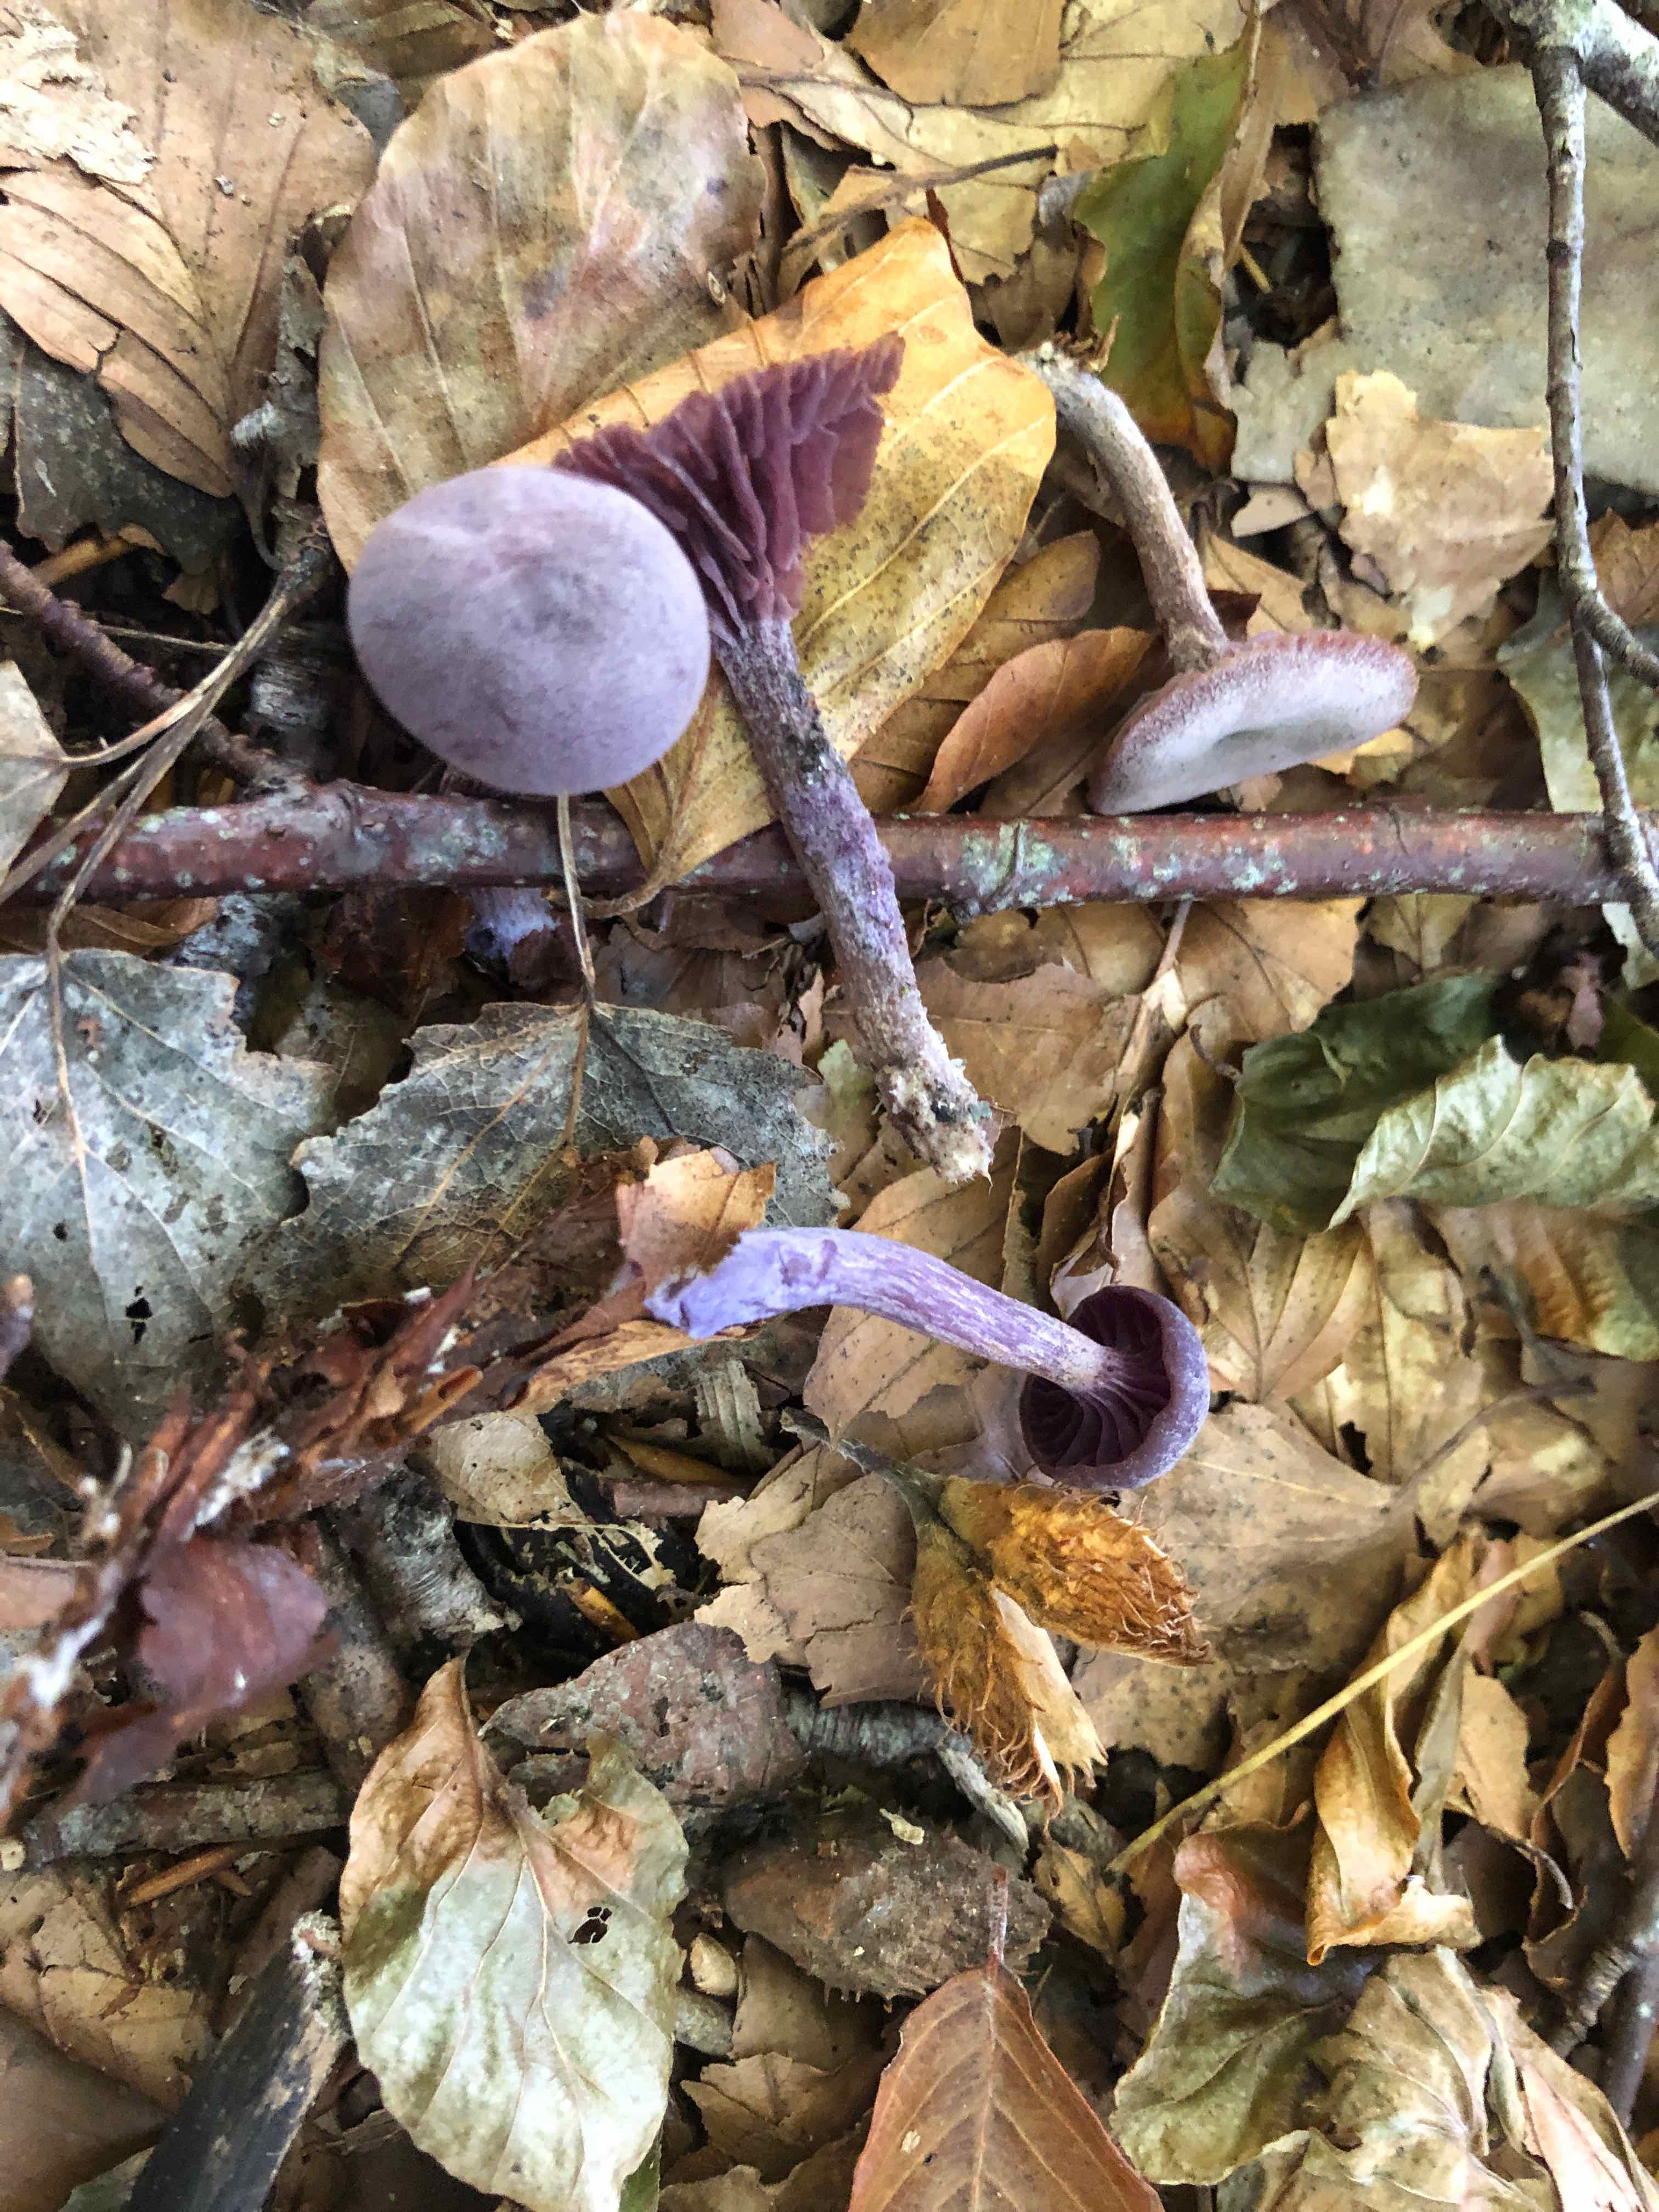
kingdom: Fungi
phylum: Basidiomycota
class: Agaricomycetes
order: Agaricales
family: Hydnangiaceae
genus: Laccaria
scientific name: Laccaria amethystina
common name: violet ametysthat
